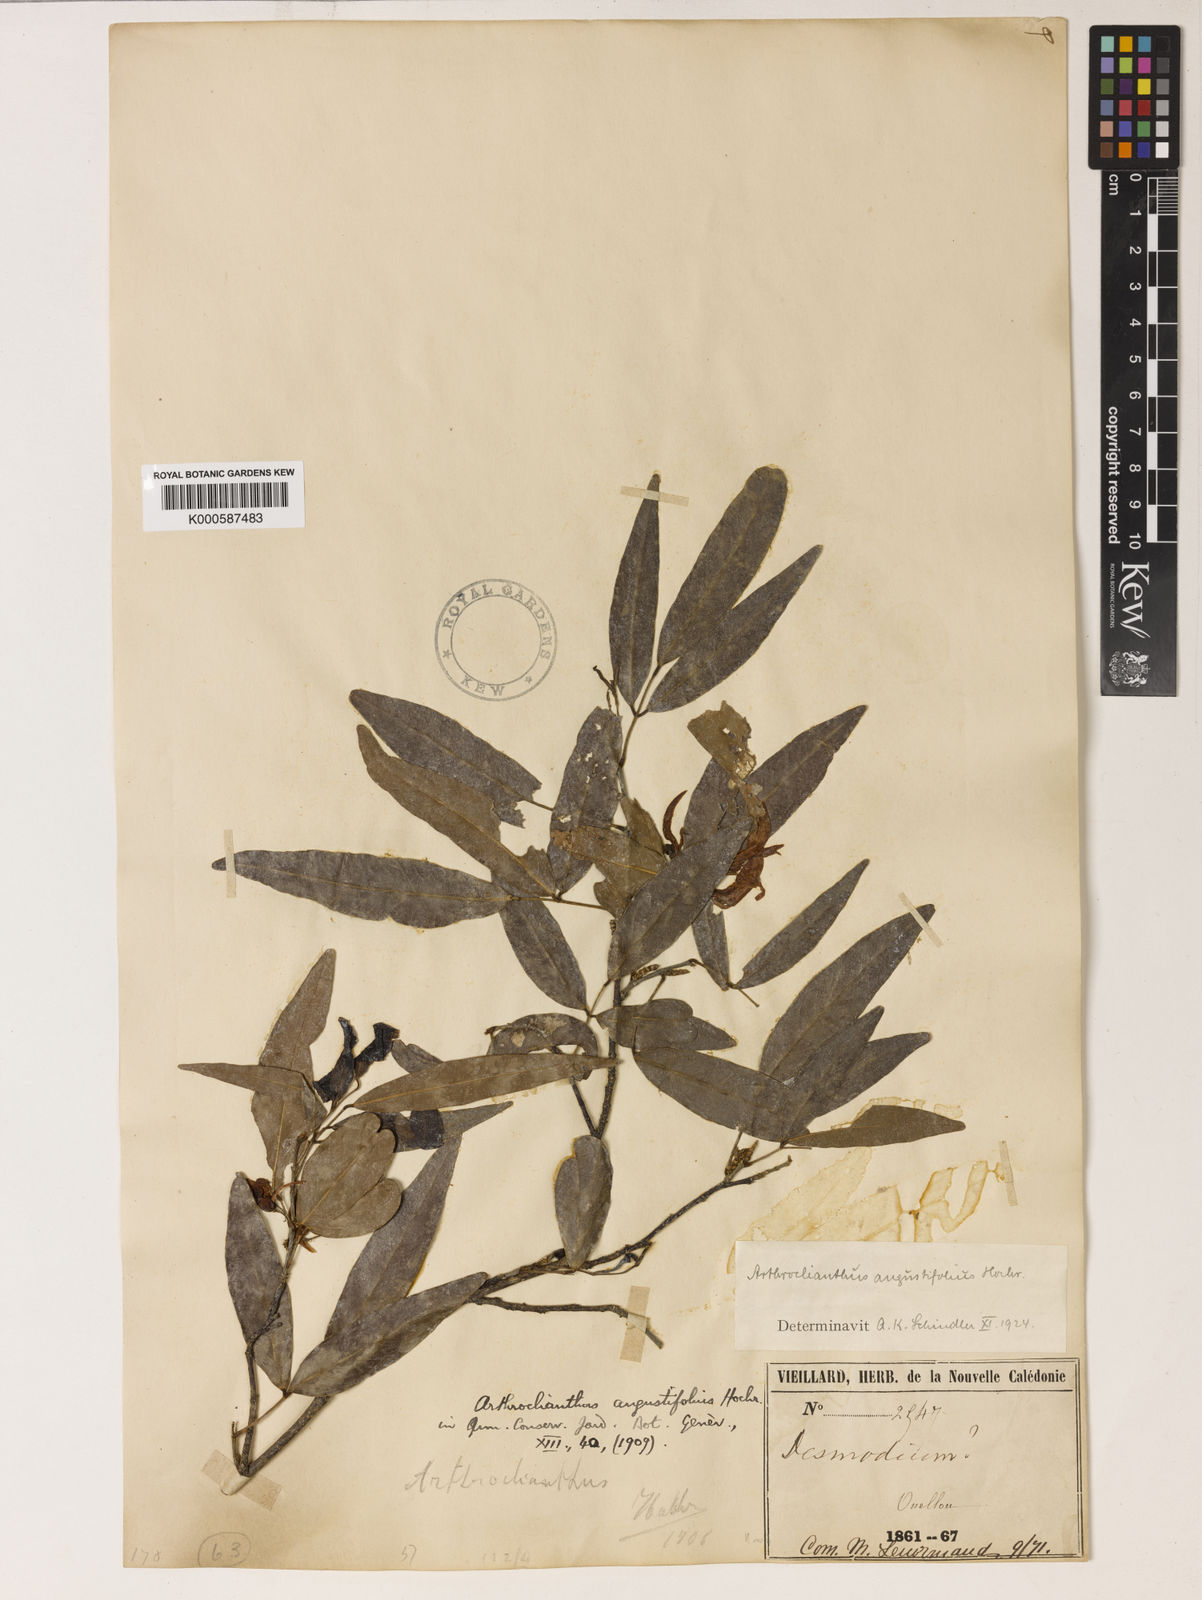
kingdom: Plantae
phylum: Tracheophyta
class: Magnoliopsida
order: Fabales
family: Fabaceae
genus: Arthroclianthus
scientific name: Arthroclianthus angustifolius
